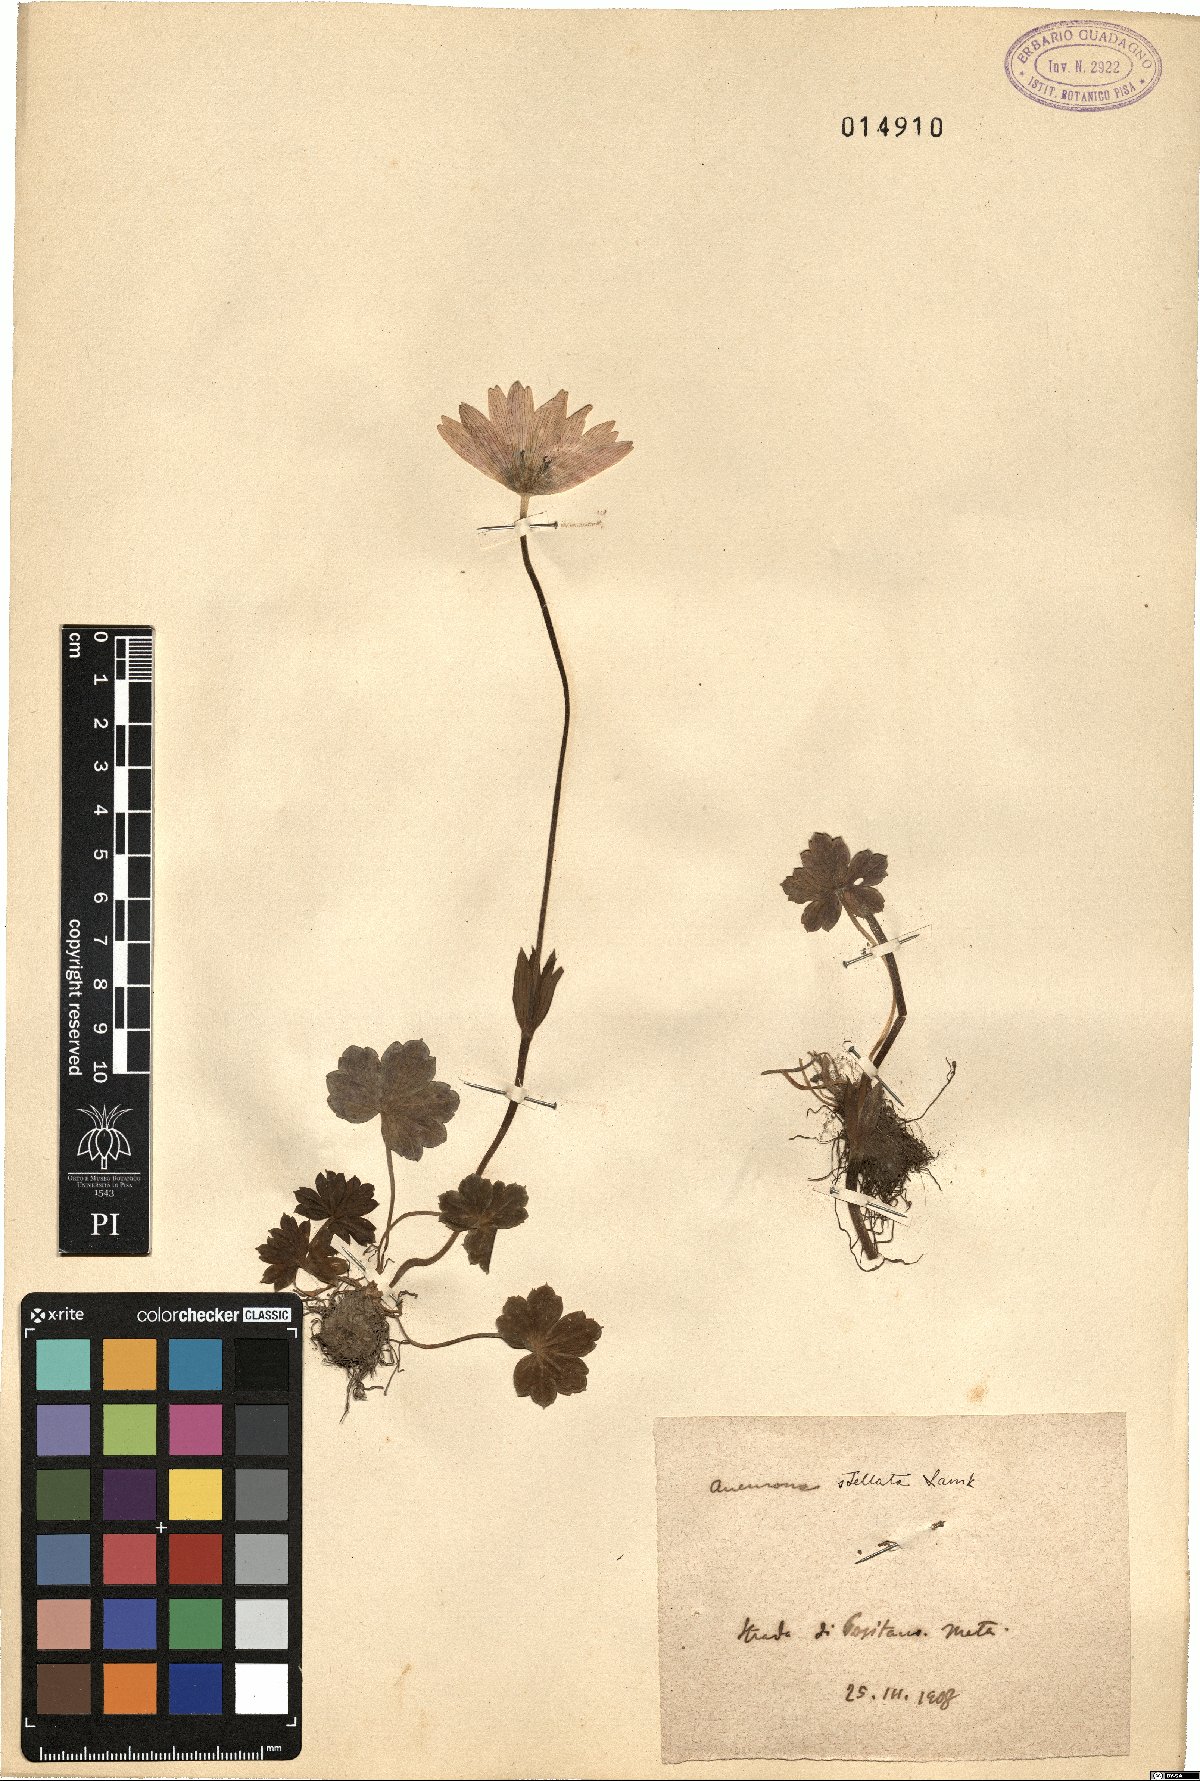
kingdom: Plantae
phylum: Tracheophyta
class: Magnoliopsida
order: Ranunculales
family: Ranunculaceae
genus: Anemone
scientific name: Anemone hortensis
